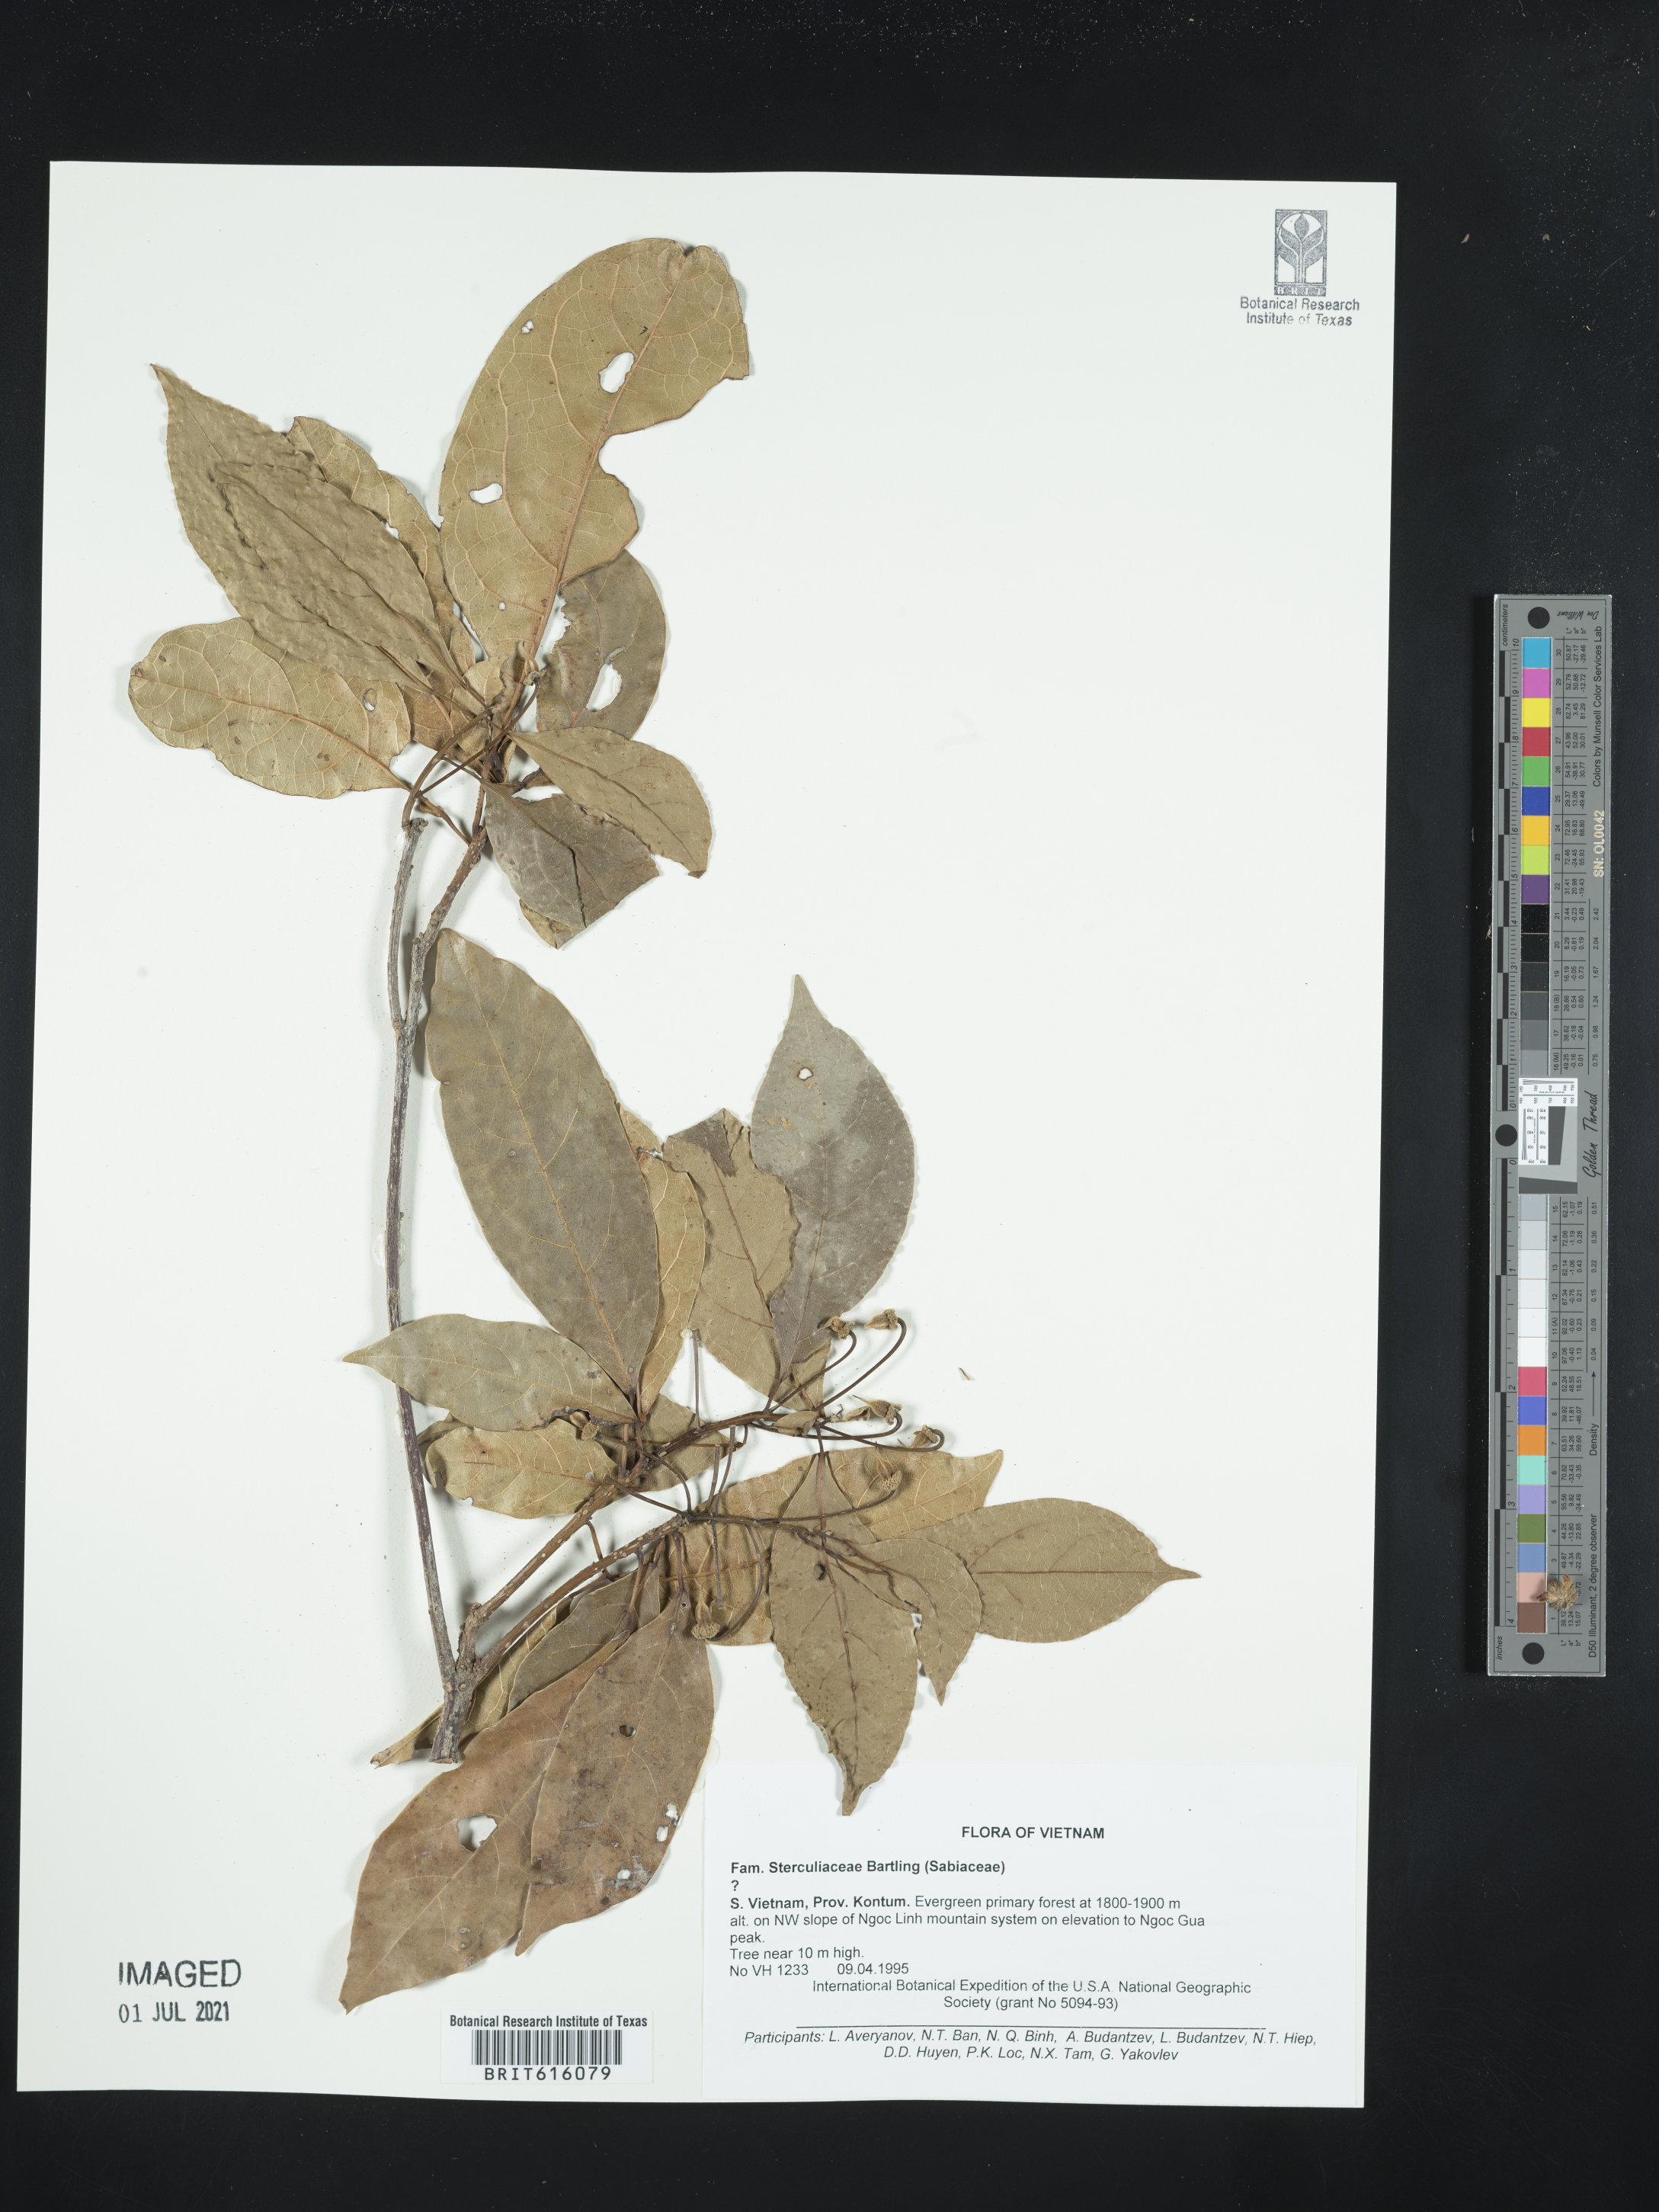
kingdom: Plantae
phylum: Tracheophyta
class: Magnoliopsida
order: Malvales
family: Sterculiaceae
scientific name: Sterculiaceae
